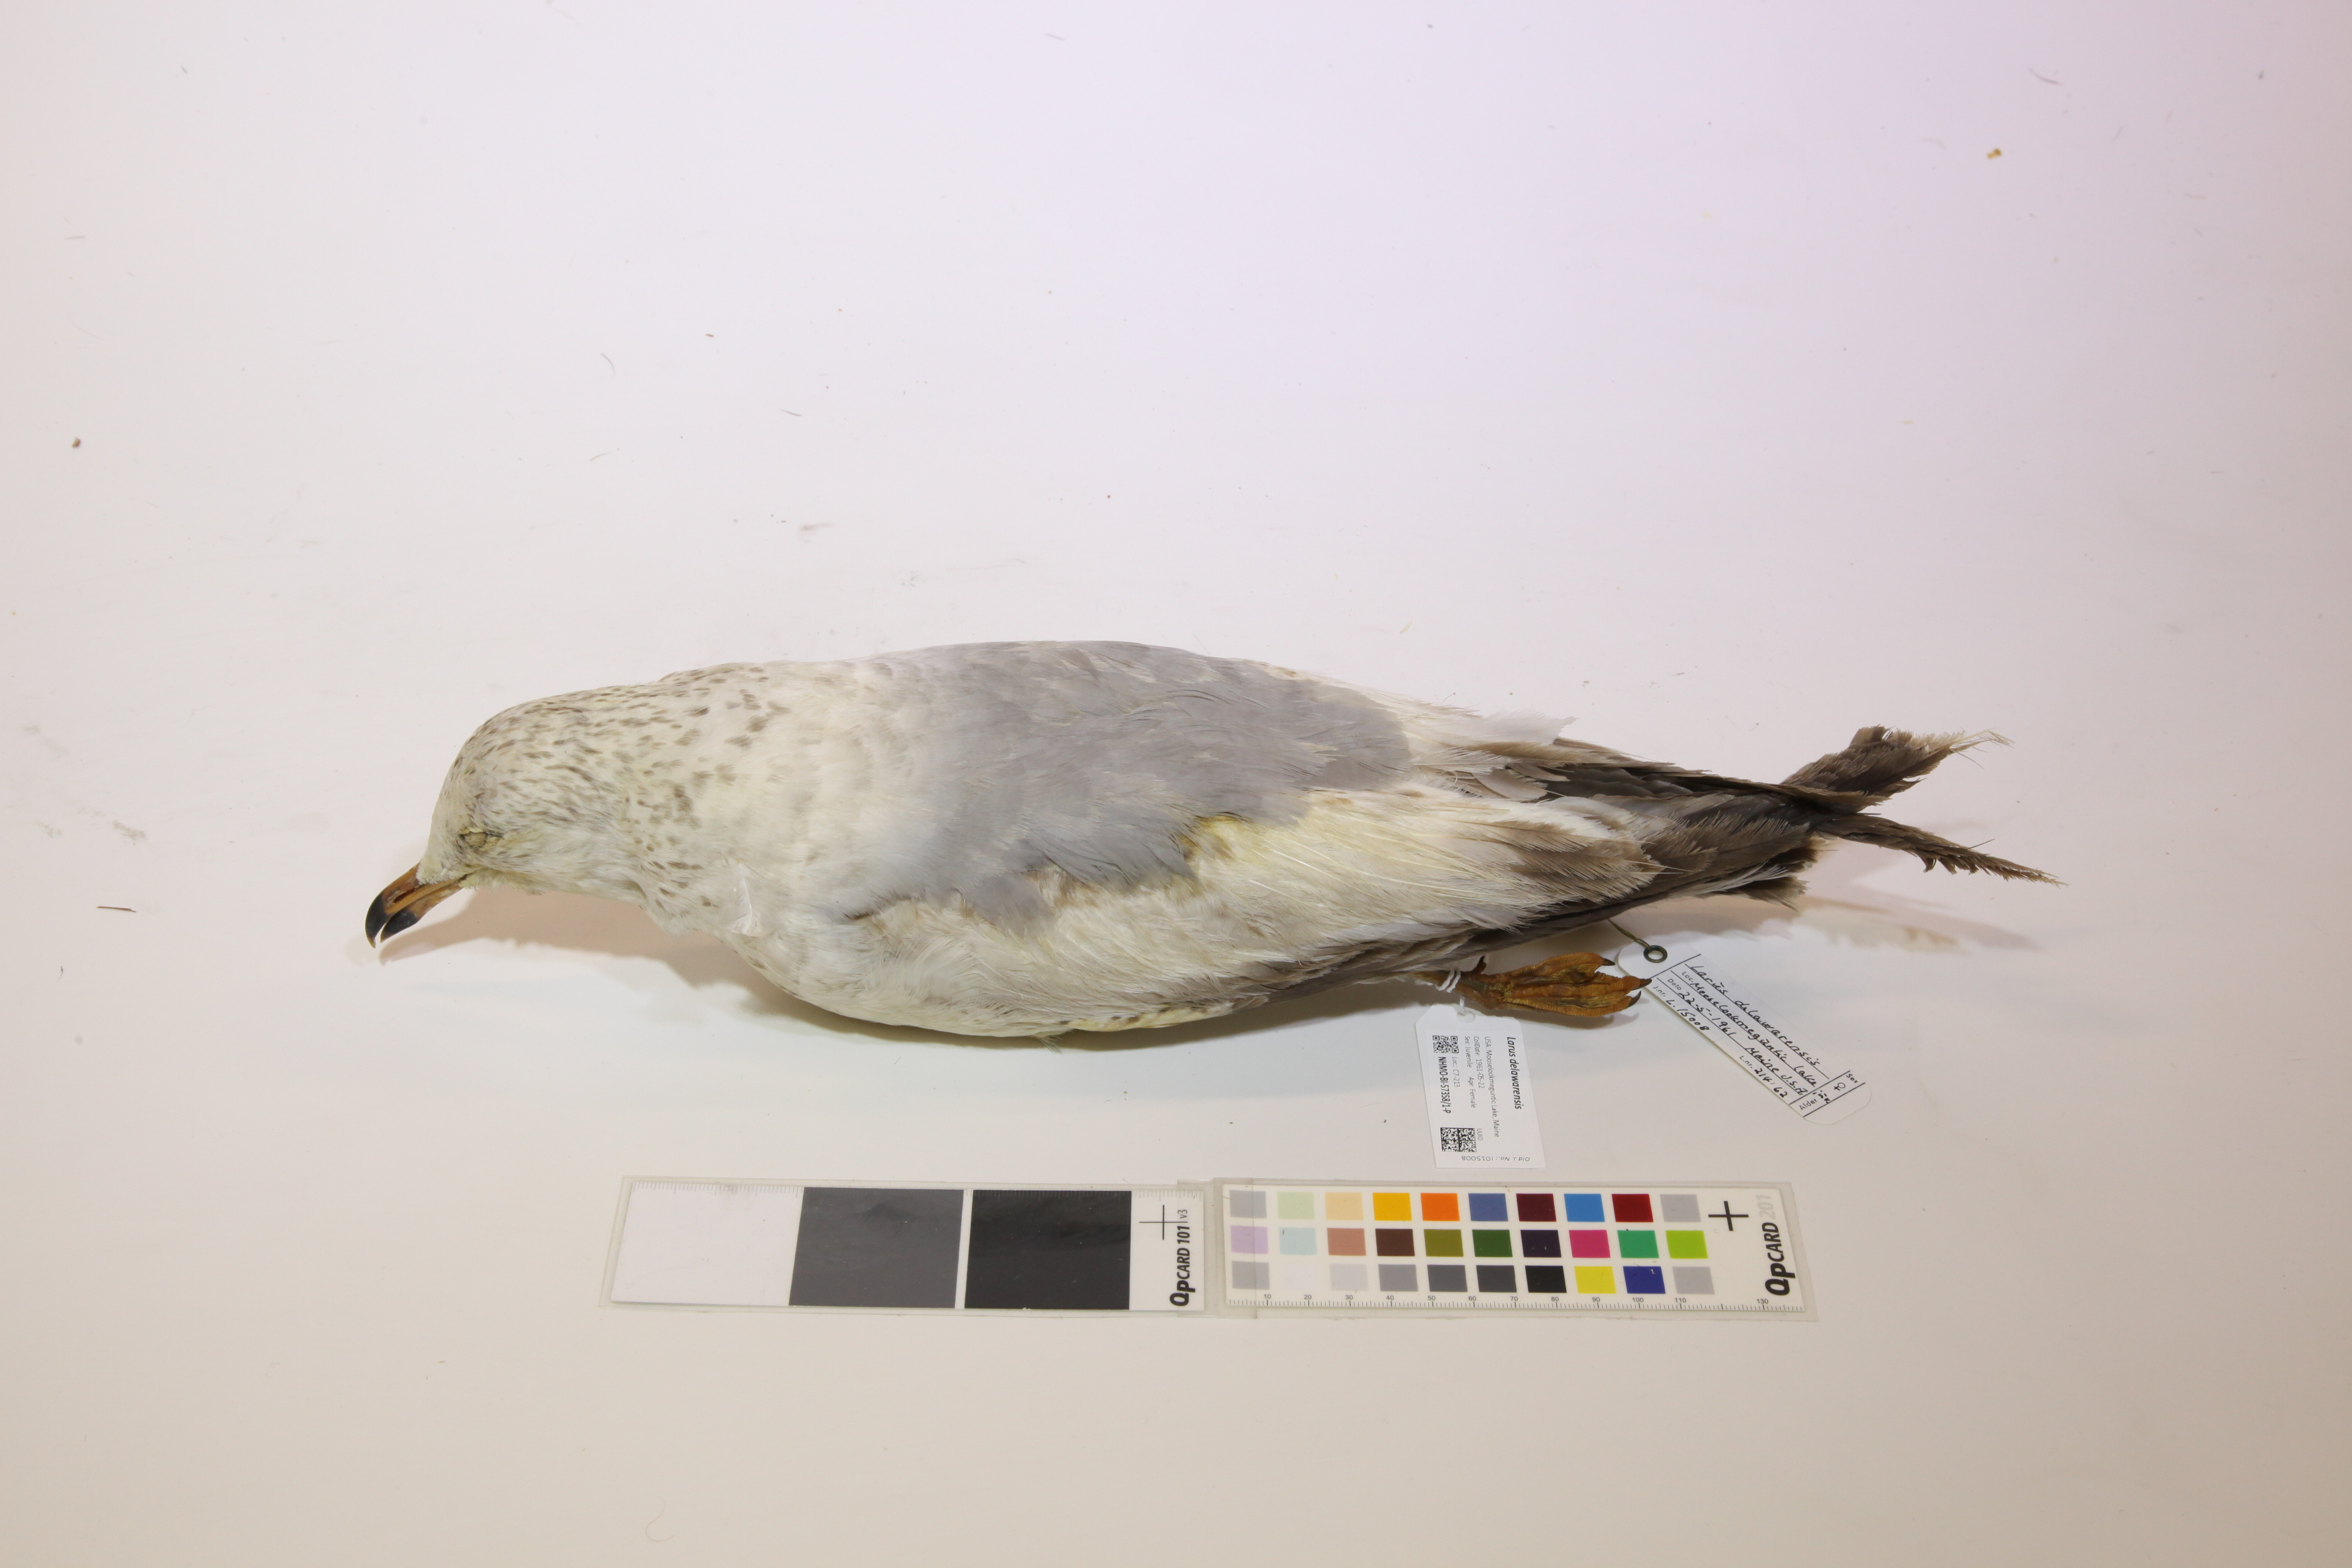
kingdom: Animalia
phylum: Chordata
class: Aves
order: Charadriiformes
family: Laridae
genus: Larus
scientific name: Larus delawarensis
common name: Ring-billed gull
